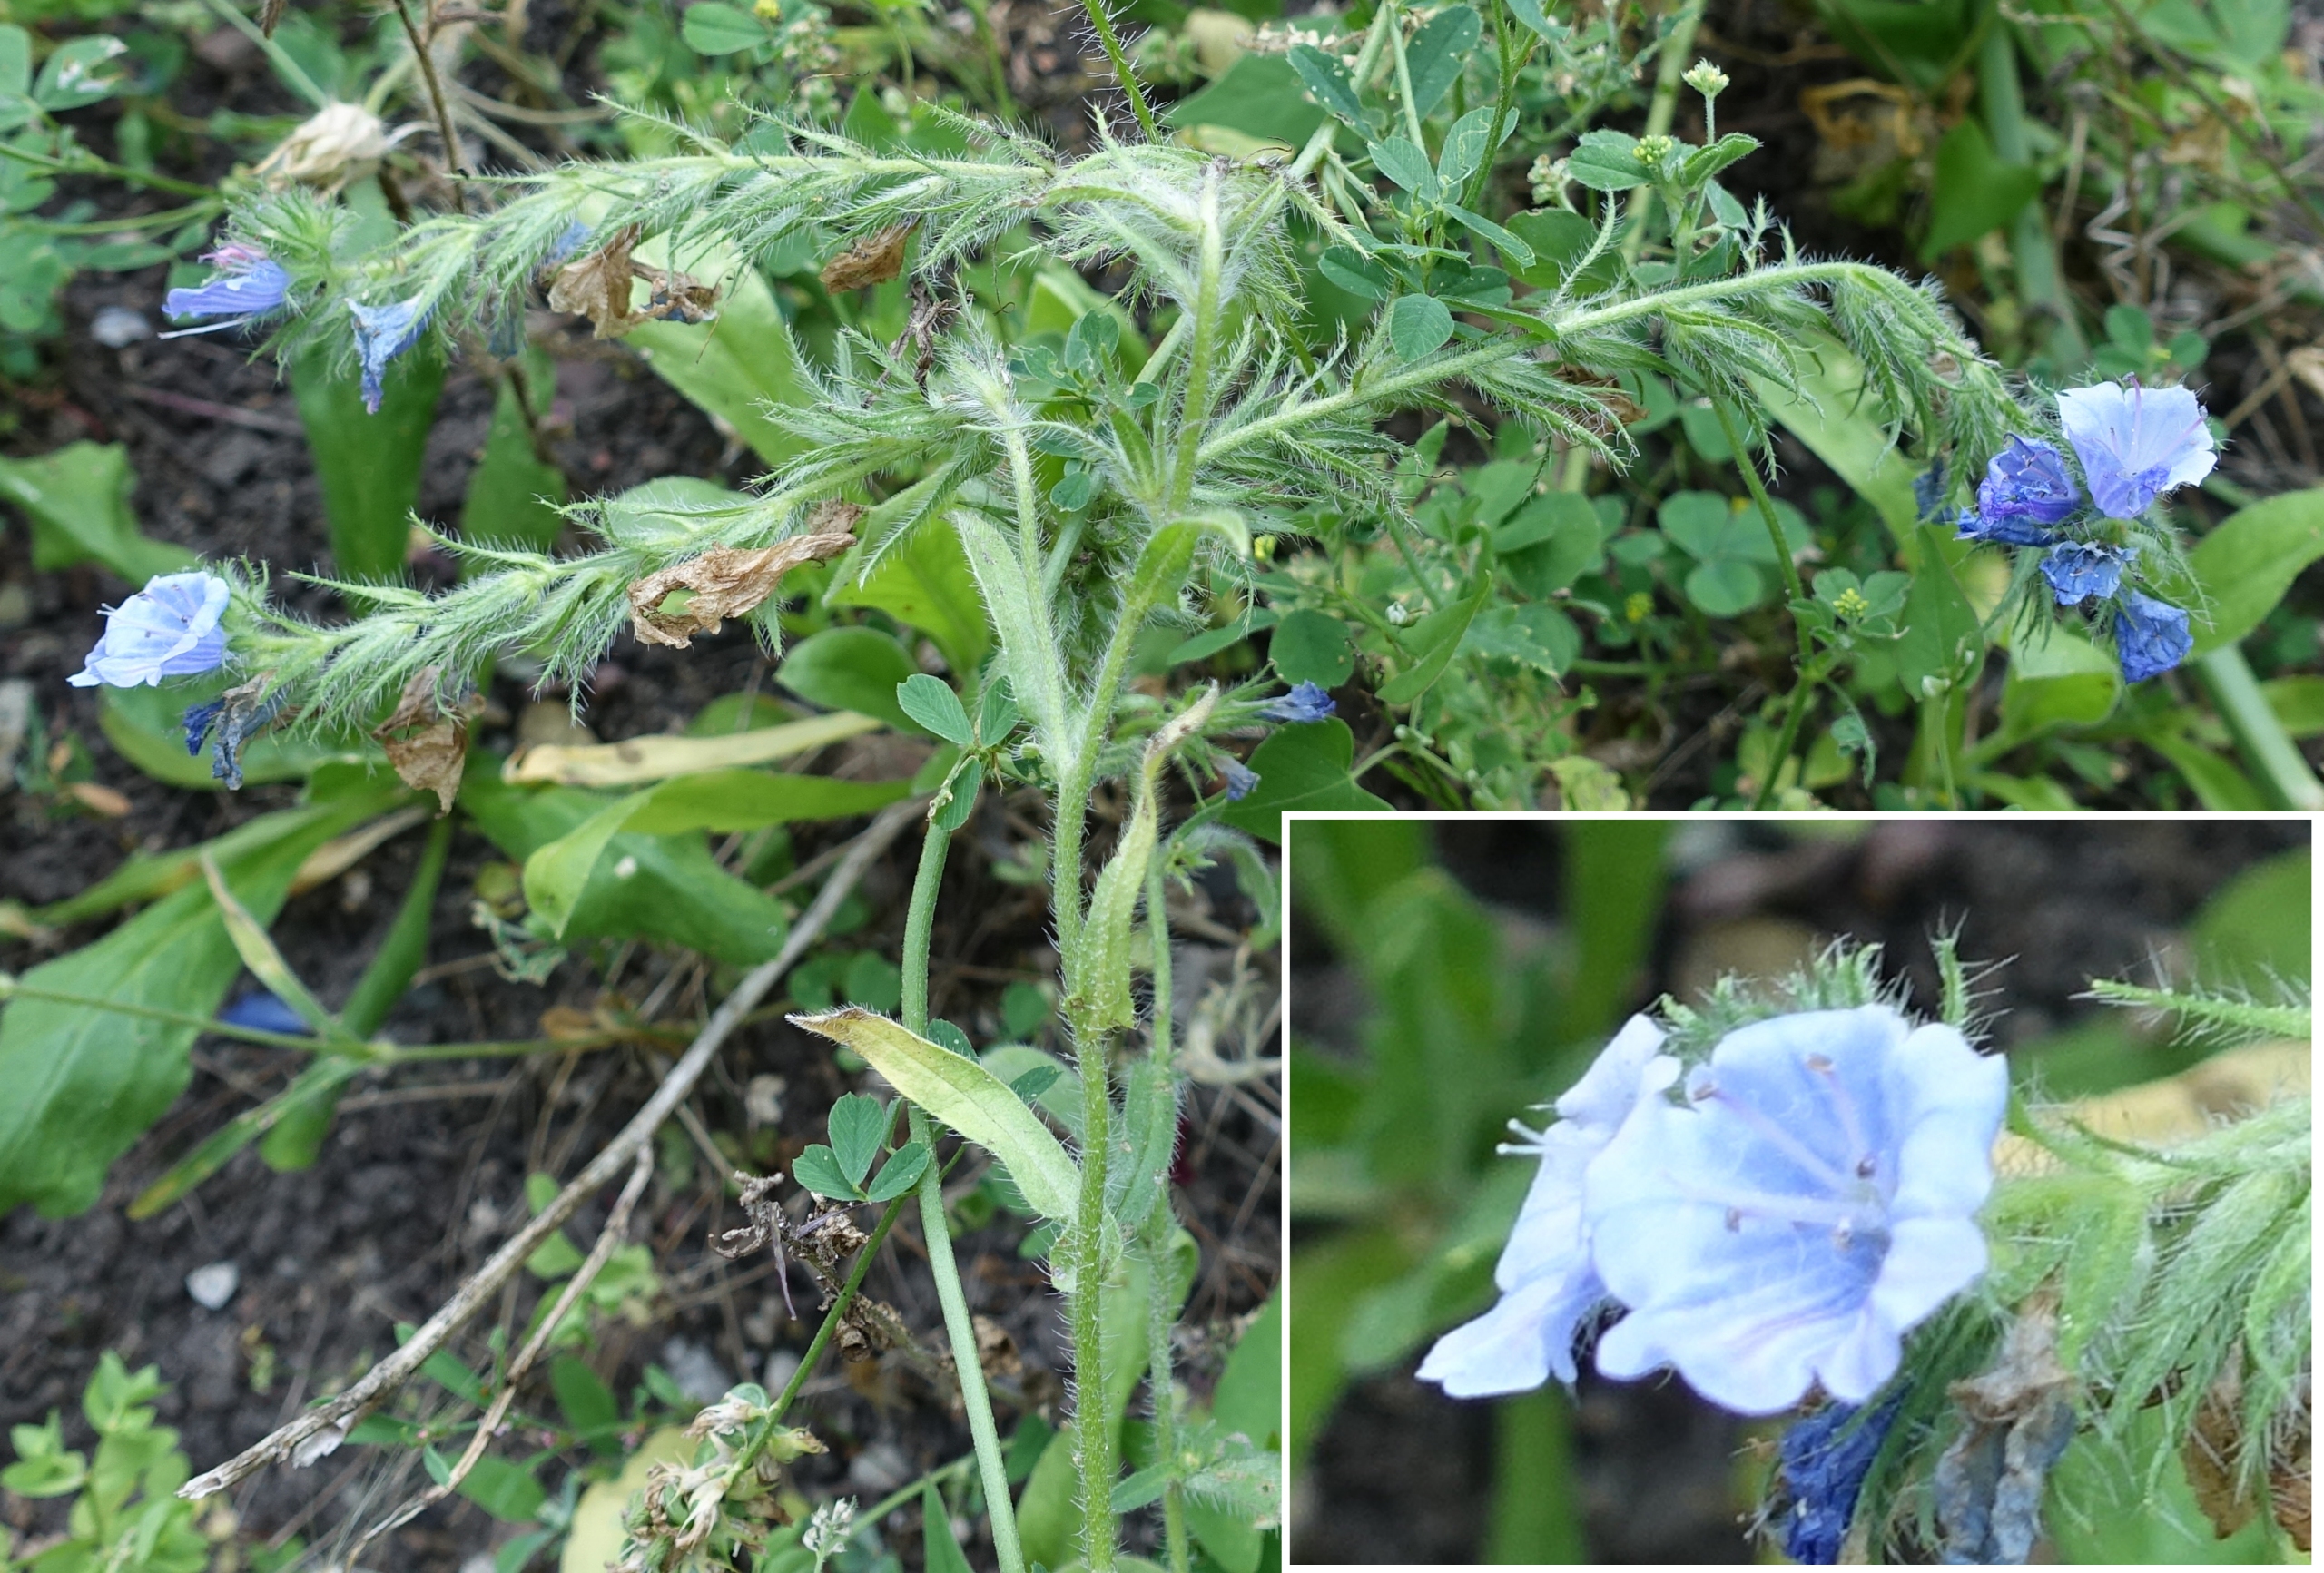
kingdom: Plantae
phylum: Tracheophyta
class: Magnoliopsida
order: Boraginales
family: Boraginaceae
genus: Echium
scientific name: Echium plantagineum
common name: Vejbred-slangehoved
